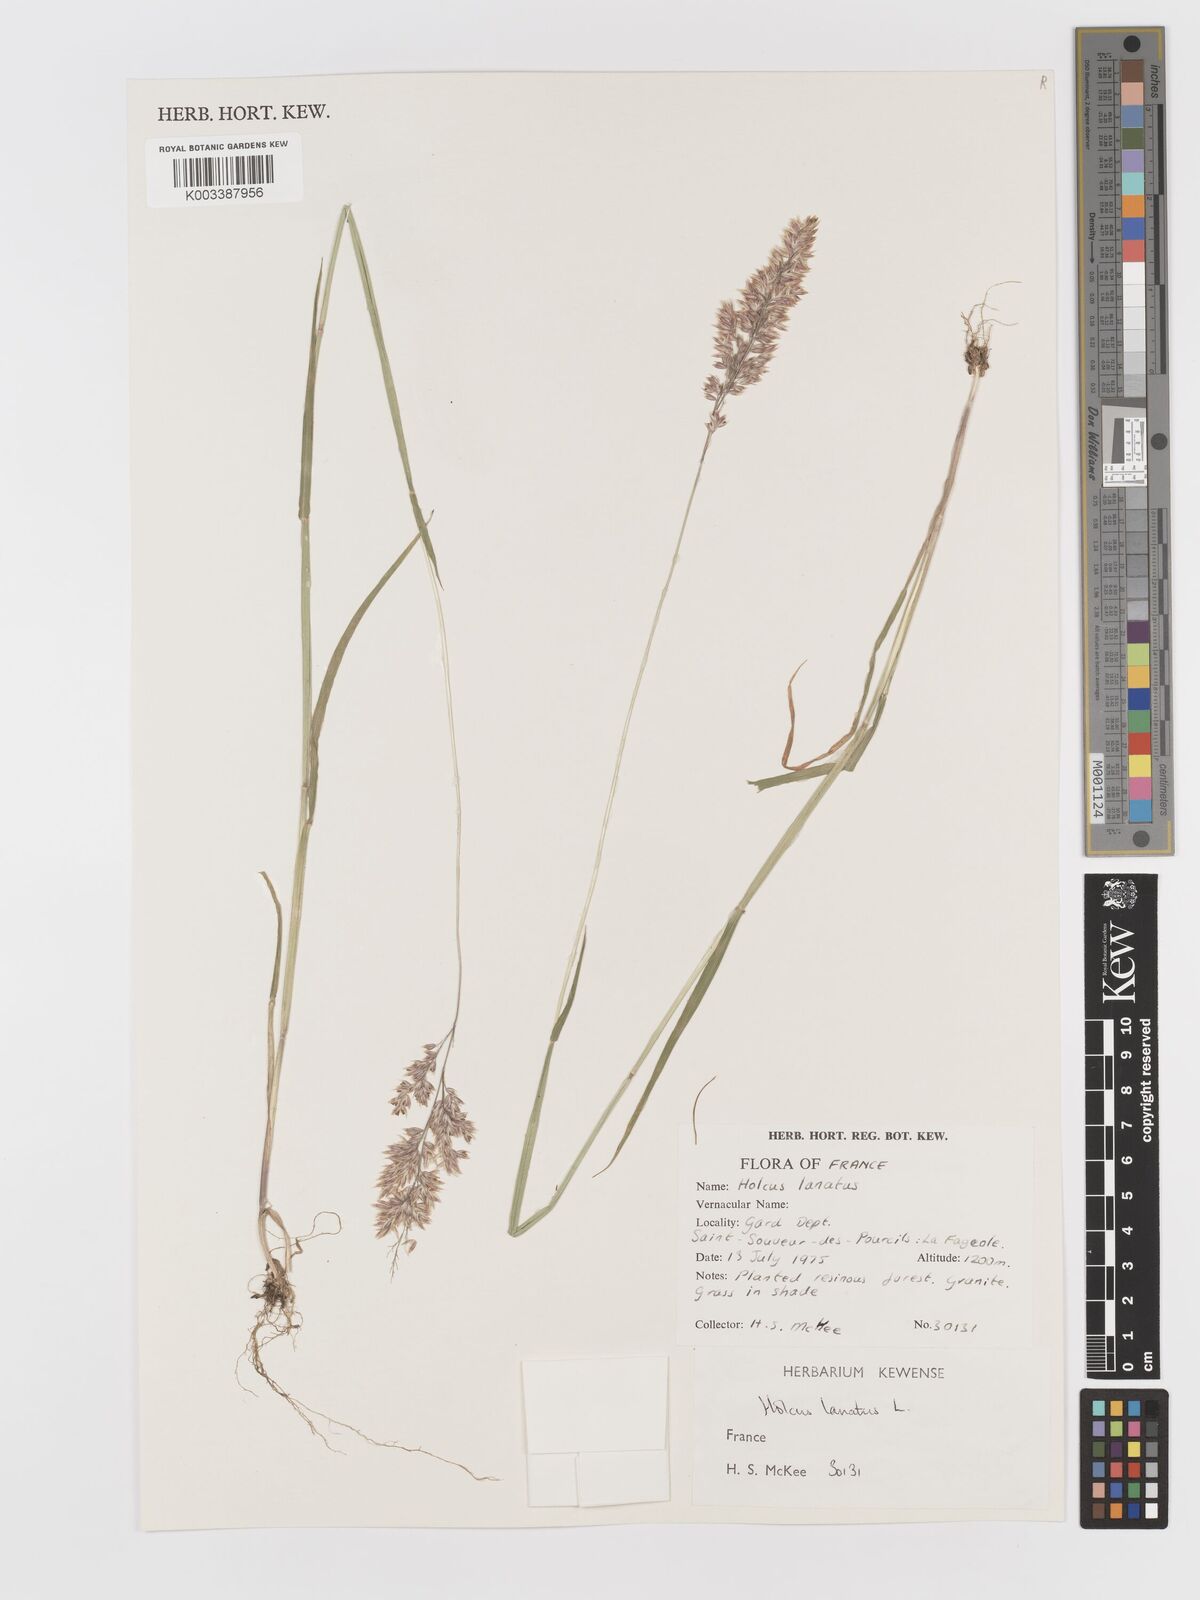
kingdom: Plantae
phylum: Tracheophyta
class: Liliopsida
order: Poales
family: Poaceae
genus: Holcus
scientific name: Holcus lanatus
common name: Yorkshire-fog
